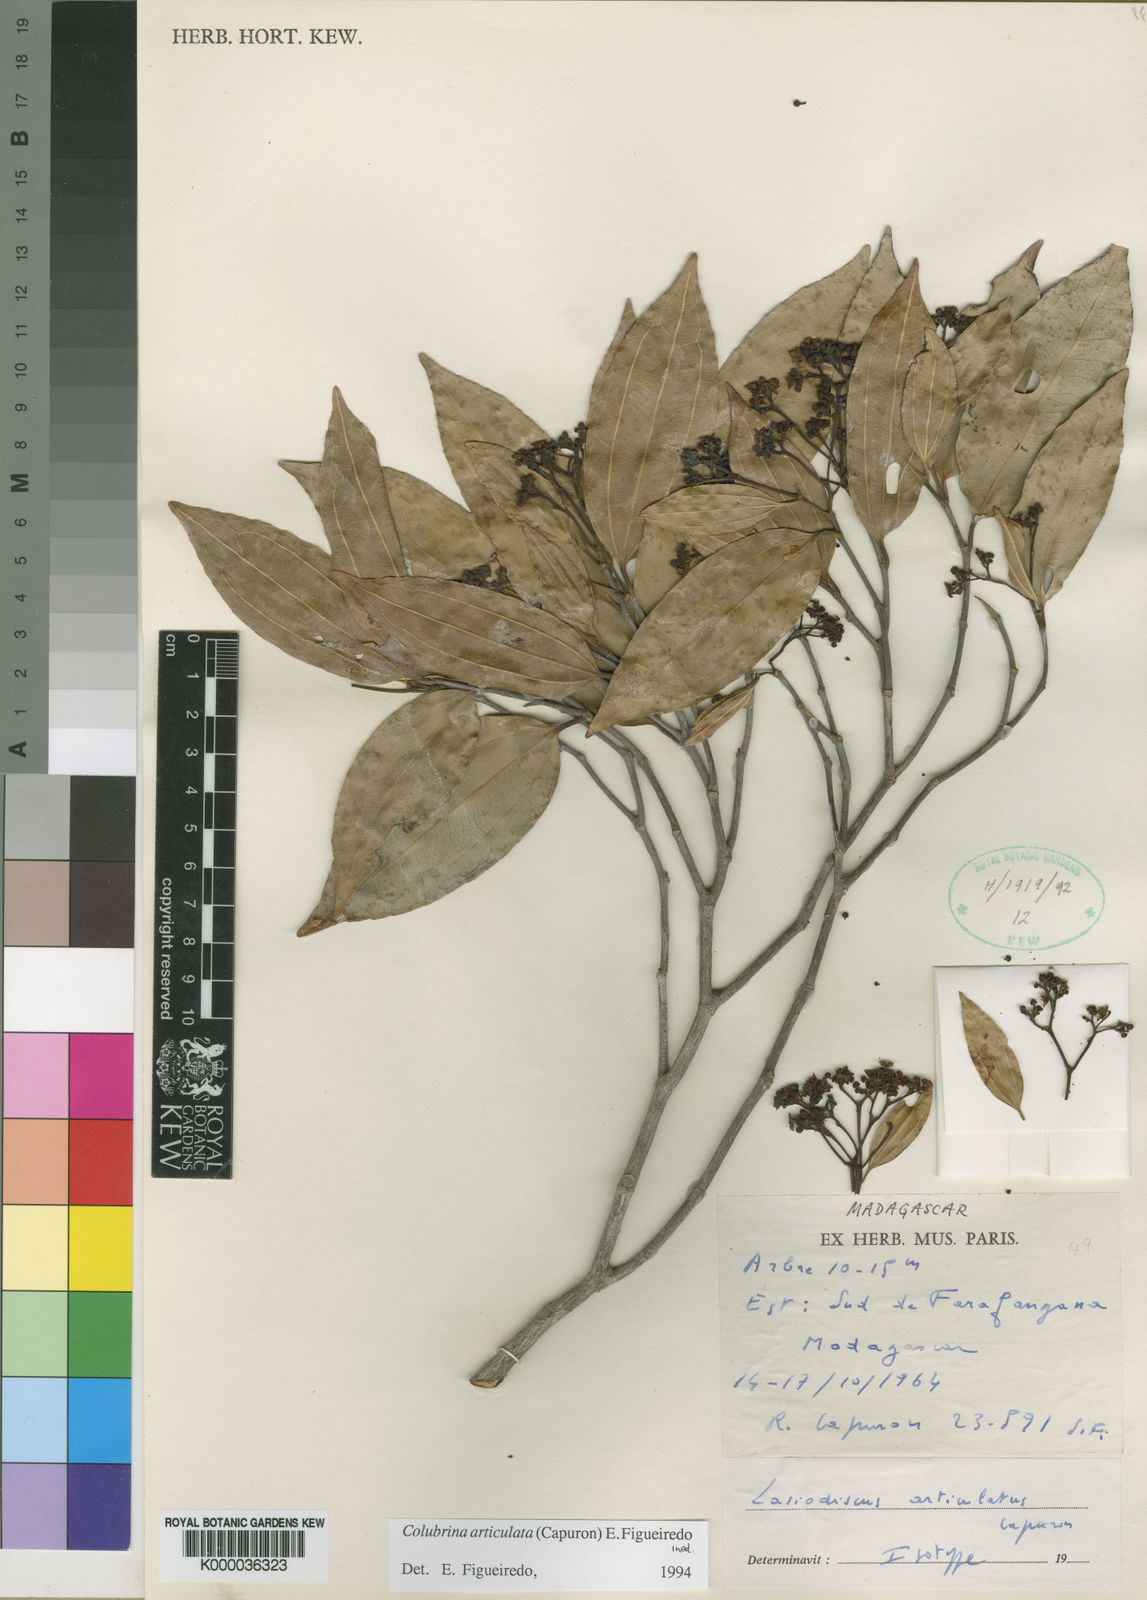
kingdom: Plantae
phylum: Tracheophyta
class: Magnoliopsida
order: Rosales
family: Rhamnaceae
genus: Colubrina
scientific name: Colubrina articulata
